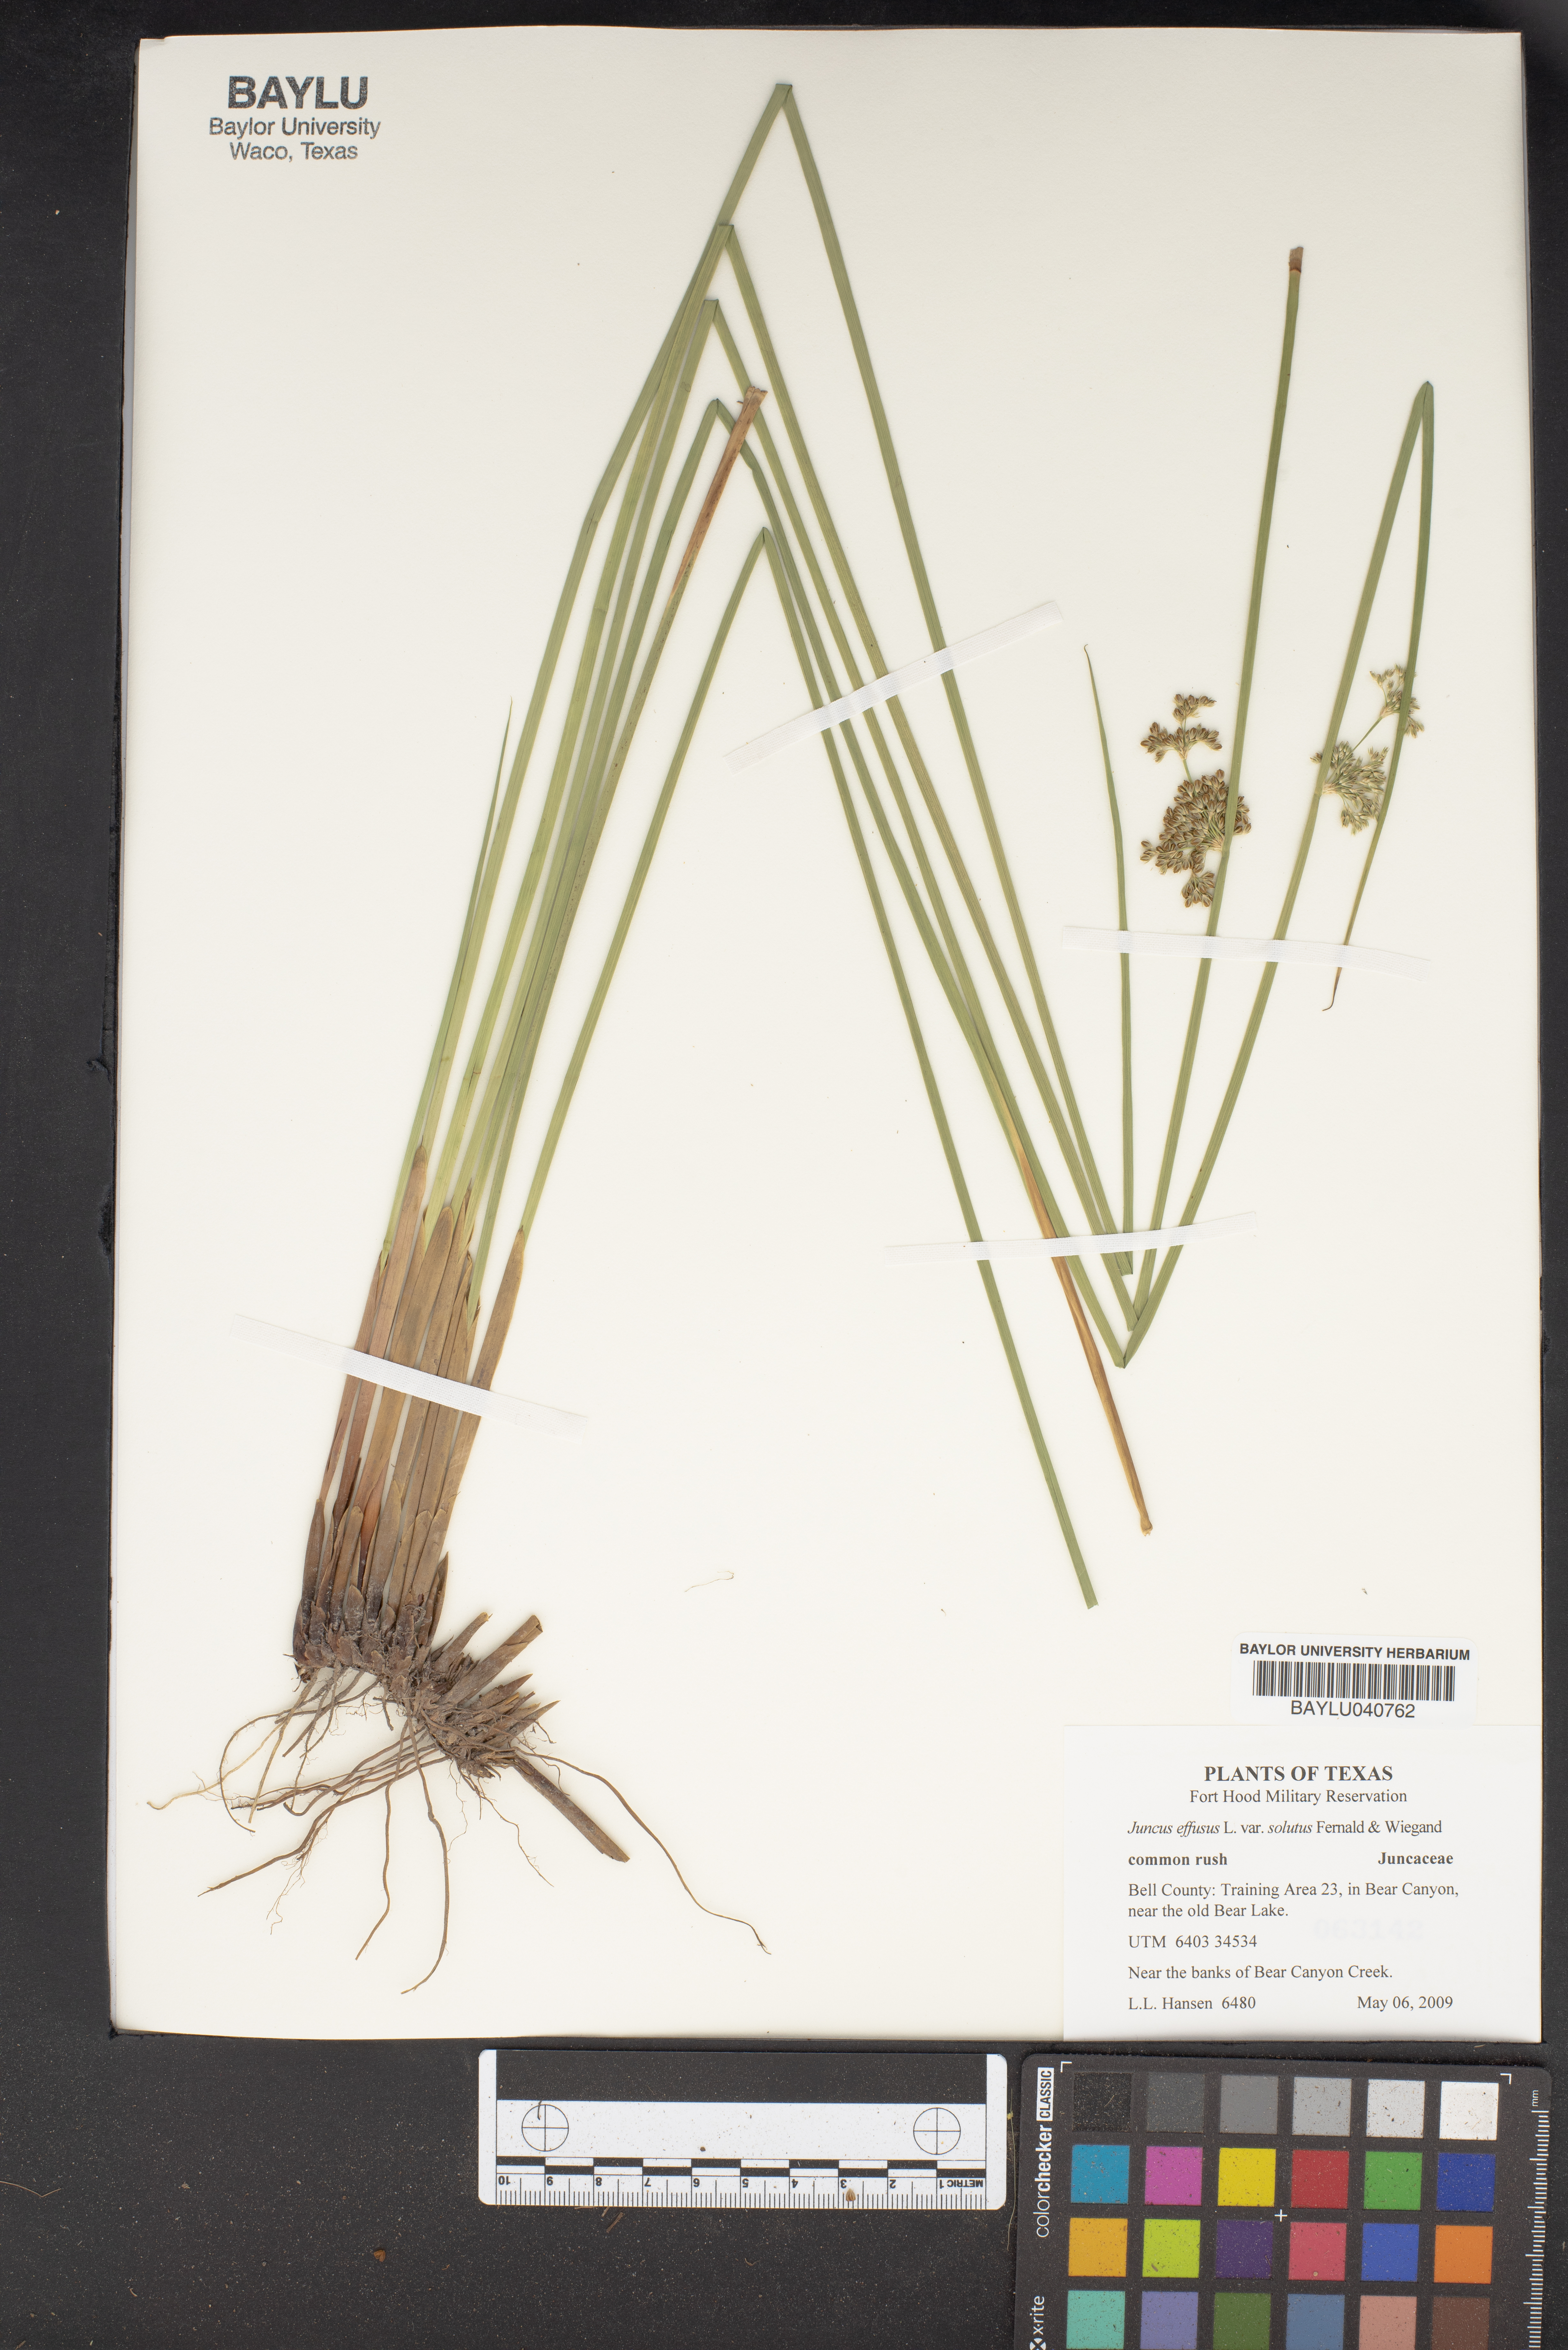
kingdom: Plantae
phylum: Tracheophyta
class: Liliopsida
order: Poales
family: Juncaceae
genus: Juncus
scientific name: Juncus effusus
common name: Soft rush
